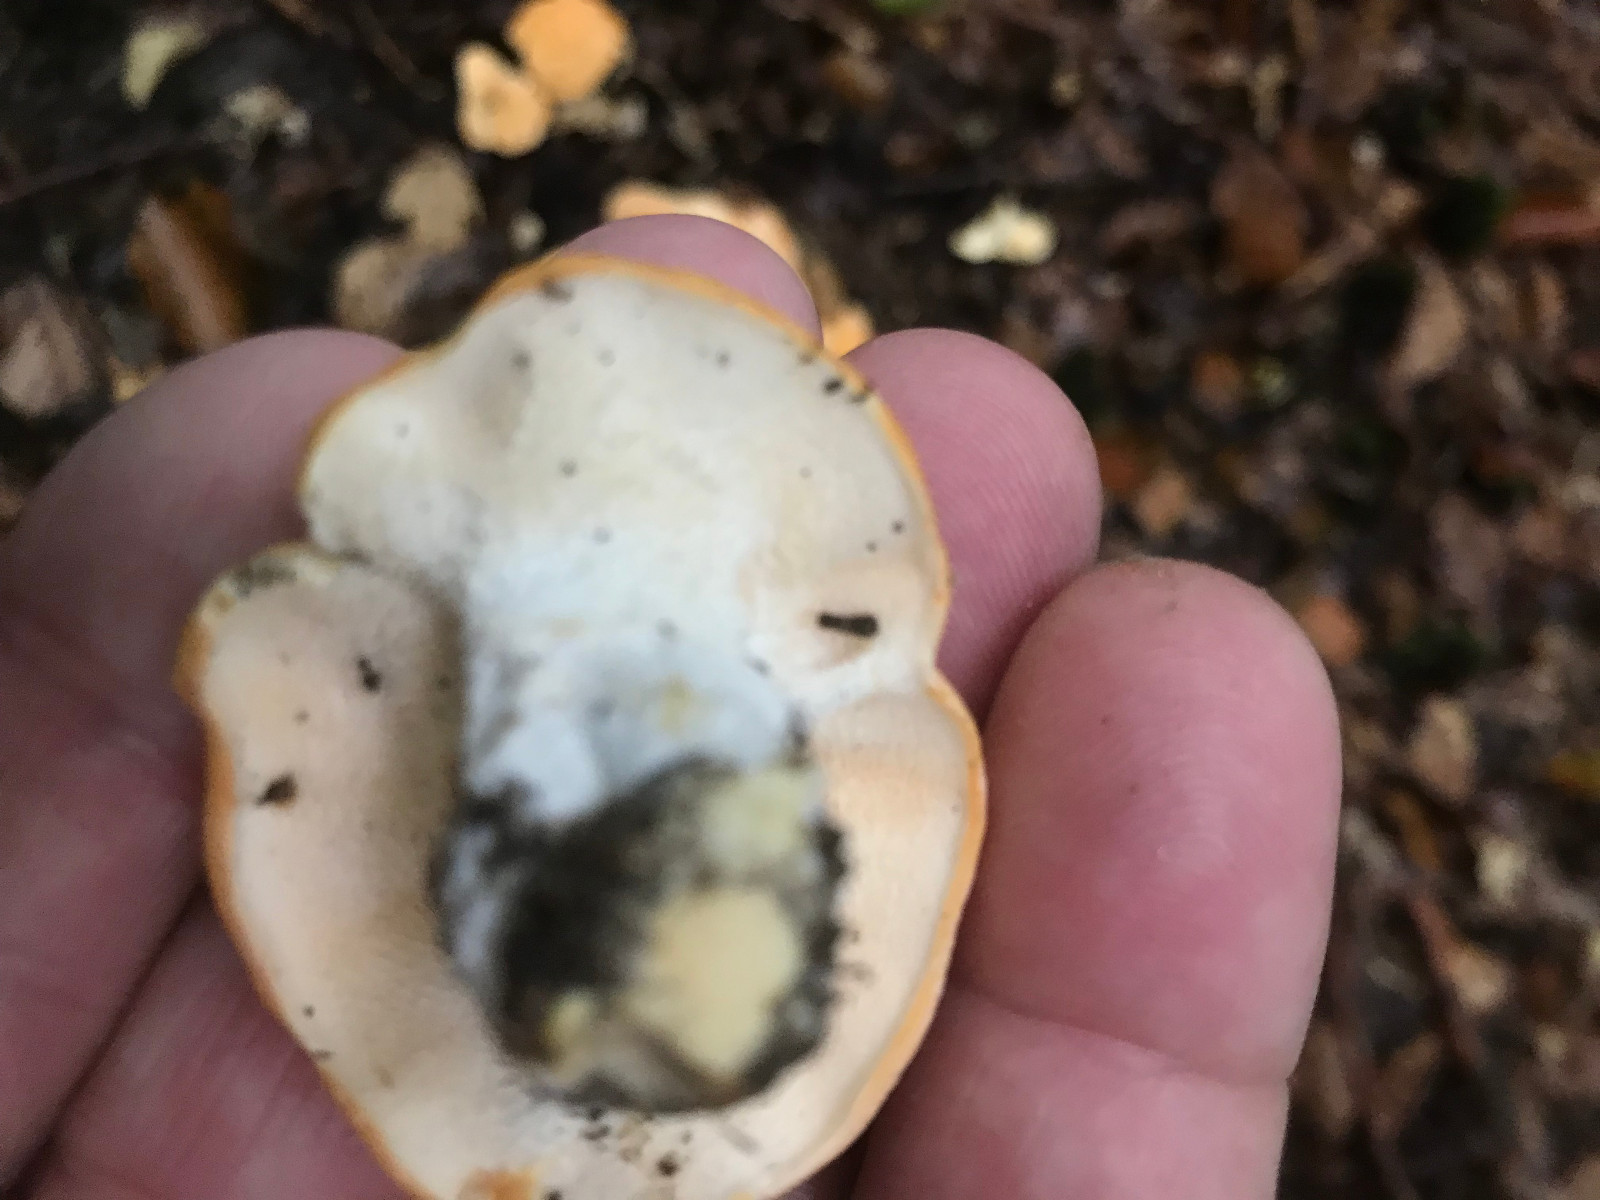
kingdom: Fungi
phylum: Basidiomycota
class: Agaricomycetes
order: Cantharellales
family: Hydnaceae
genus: Hydnum
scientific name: Hydnum
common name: pigsvamp
